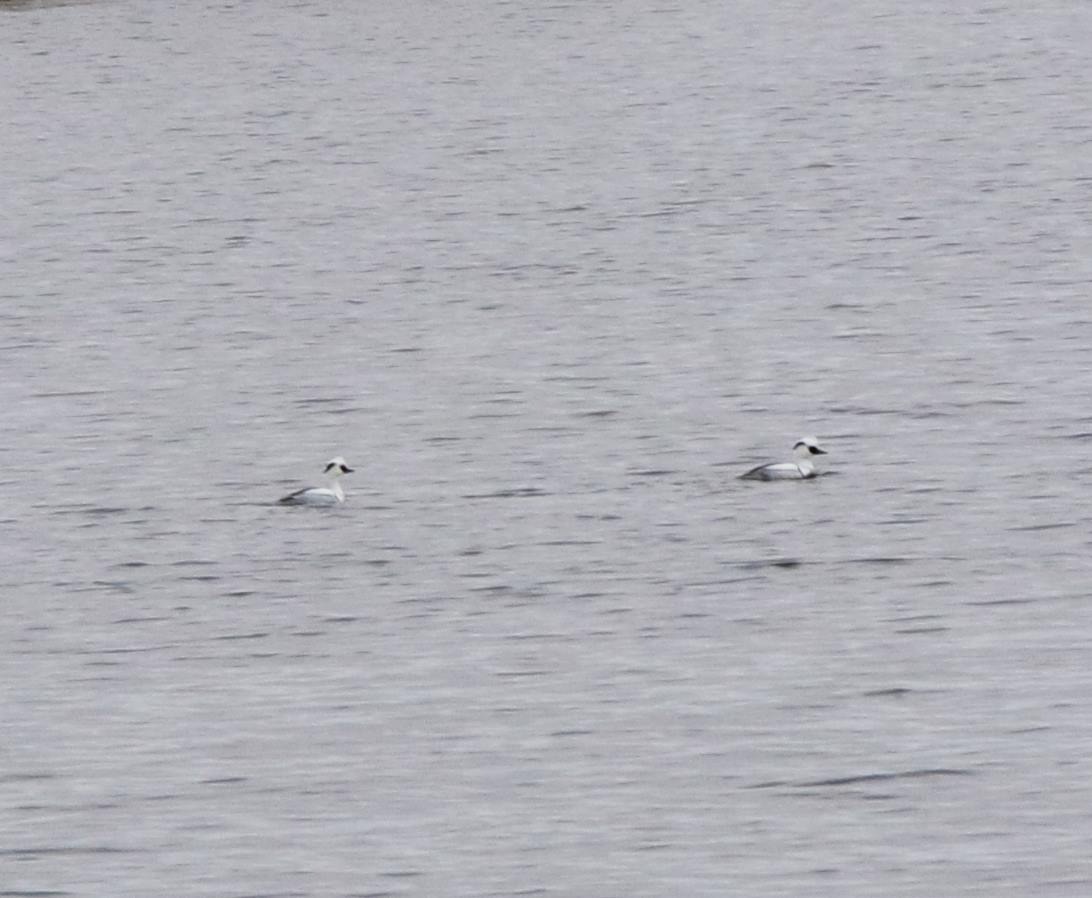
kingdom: Animalia
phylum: Chordata
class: Aves
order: Anseriformes
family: Anatidae
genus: Mergellus
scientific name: Mergellus albellus
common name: Lille skallesluger
